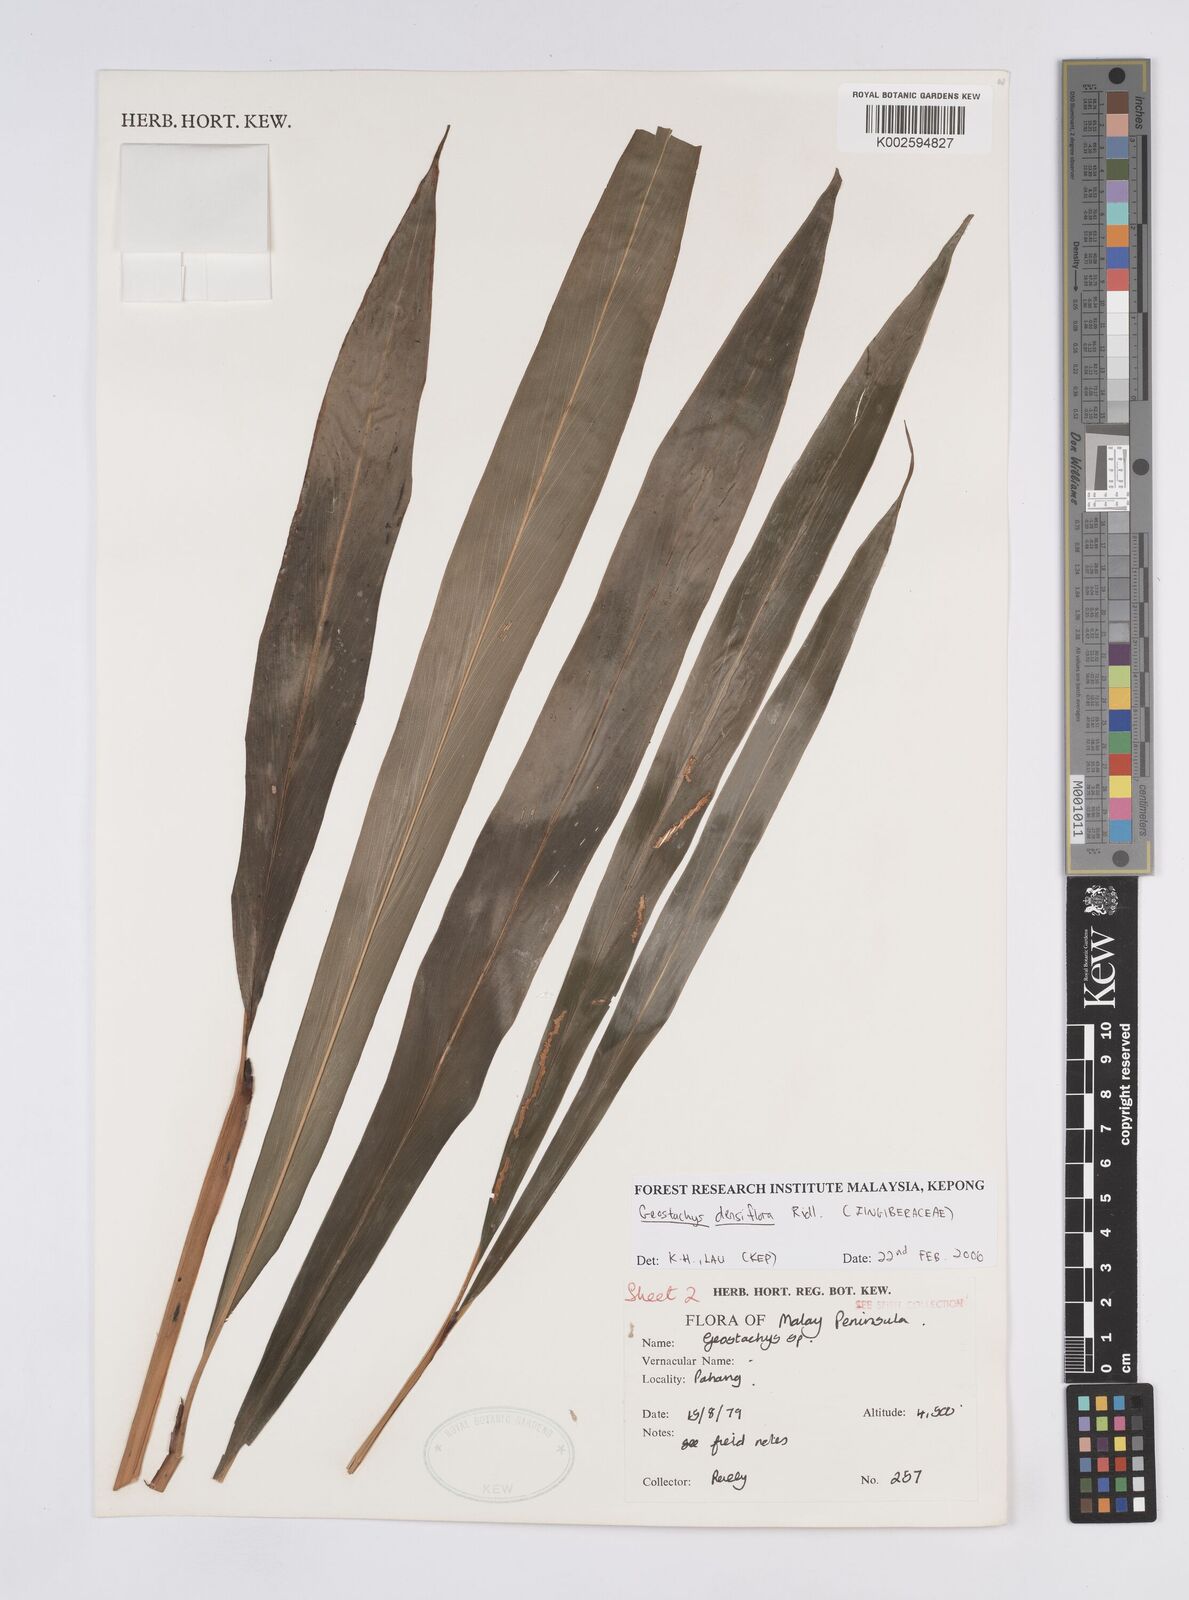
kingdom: Plantae
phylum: Tracheophyta
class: Liliopsida
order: Zingiberales
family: Zingiberaceae
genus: Geostachys
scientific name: Geostachys densiflora
